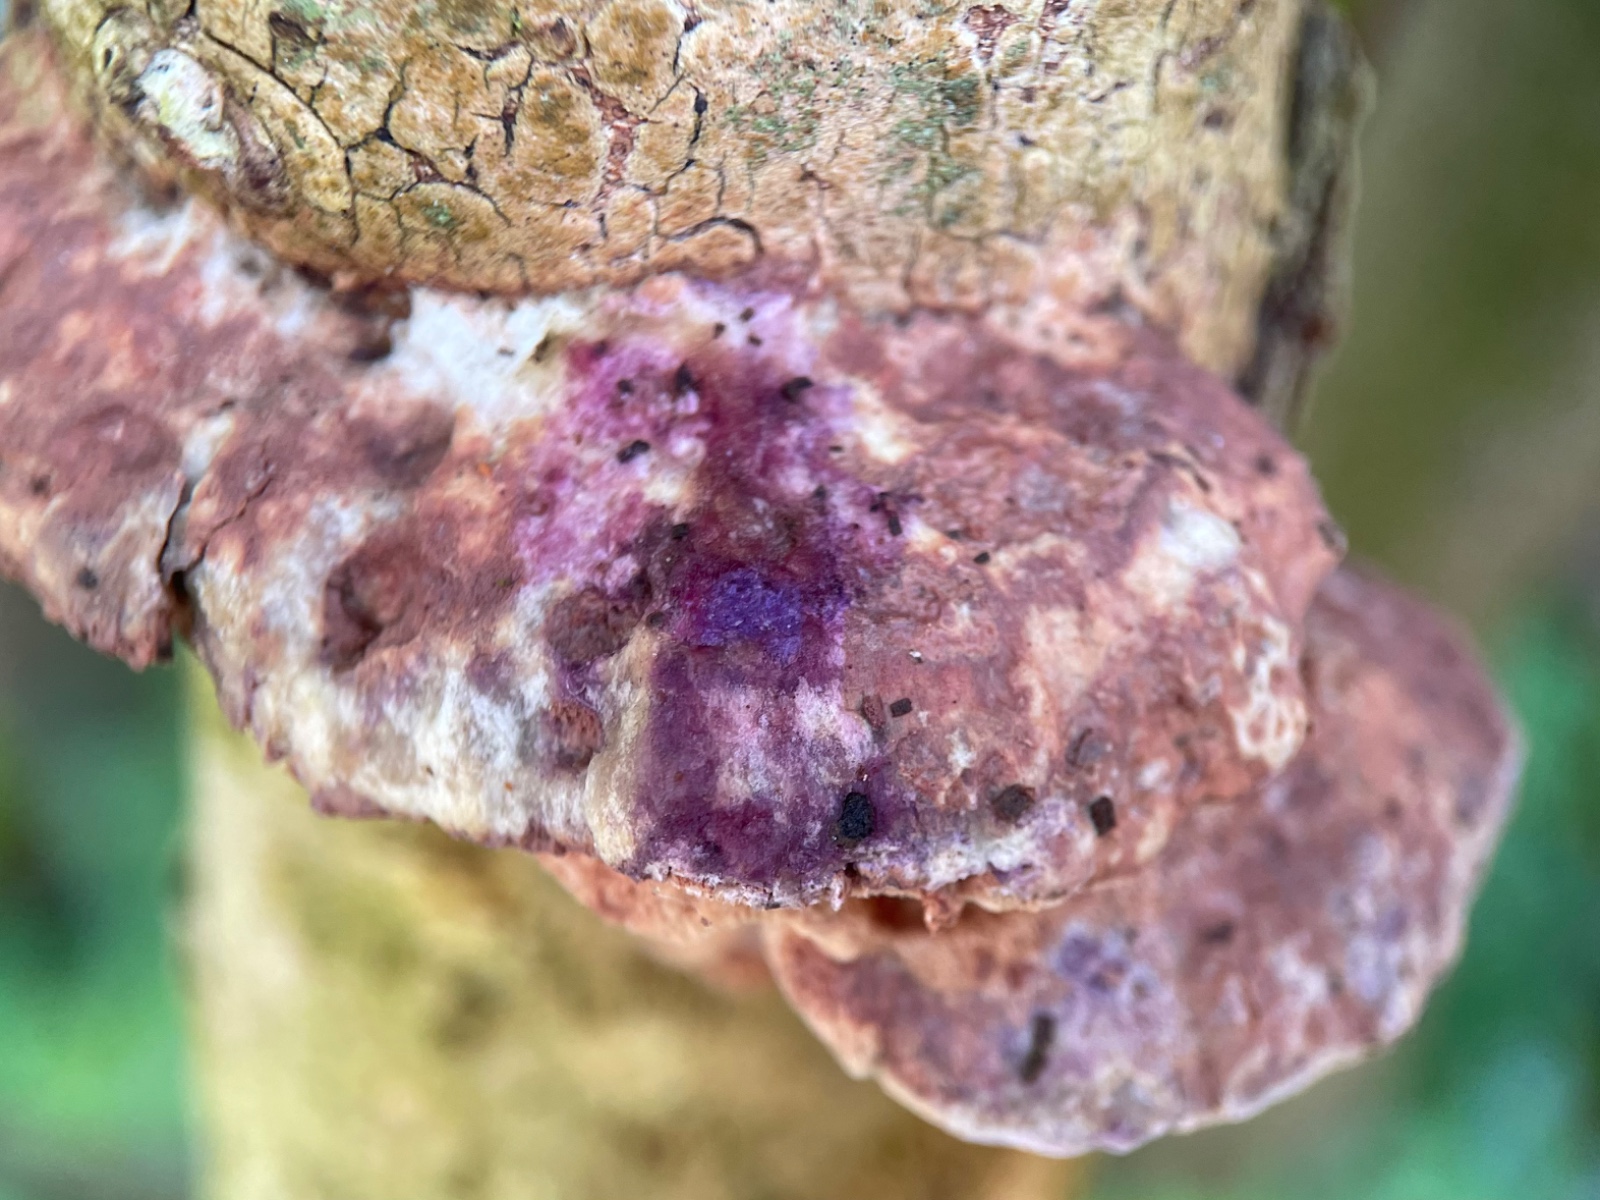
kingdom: Fungi
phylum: Basidiomycota
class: Agaricomycetes
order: Polyporales
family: Phanerochaetaceae
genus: Hapalopilus
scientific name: Hapalopilus rutilans
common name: rødlig okkerporesvamp
